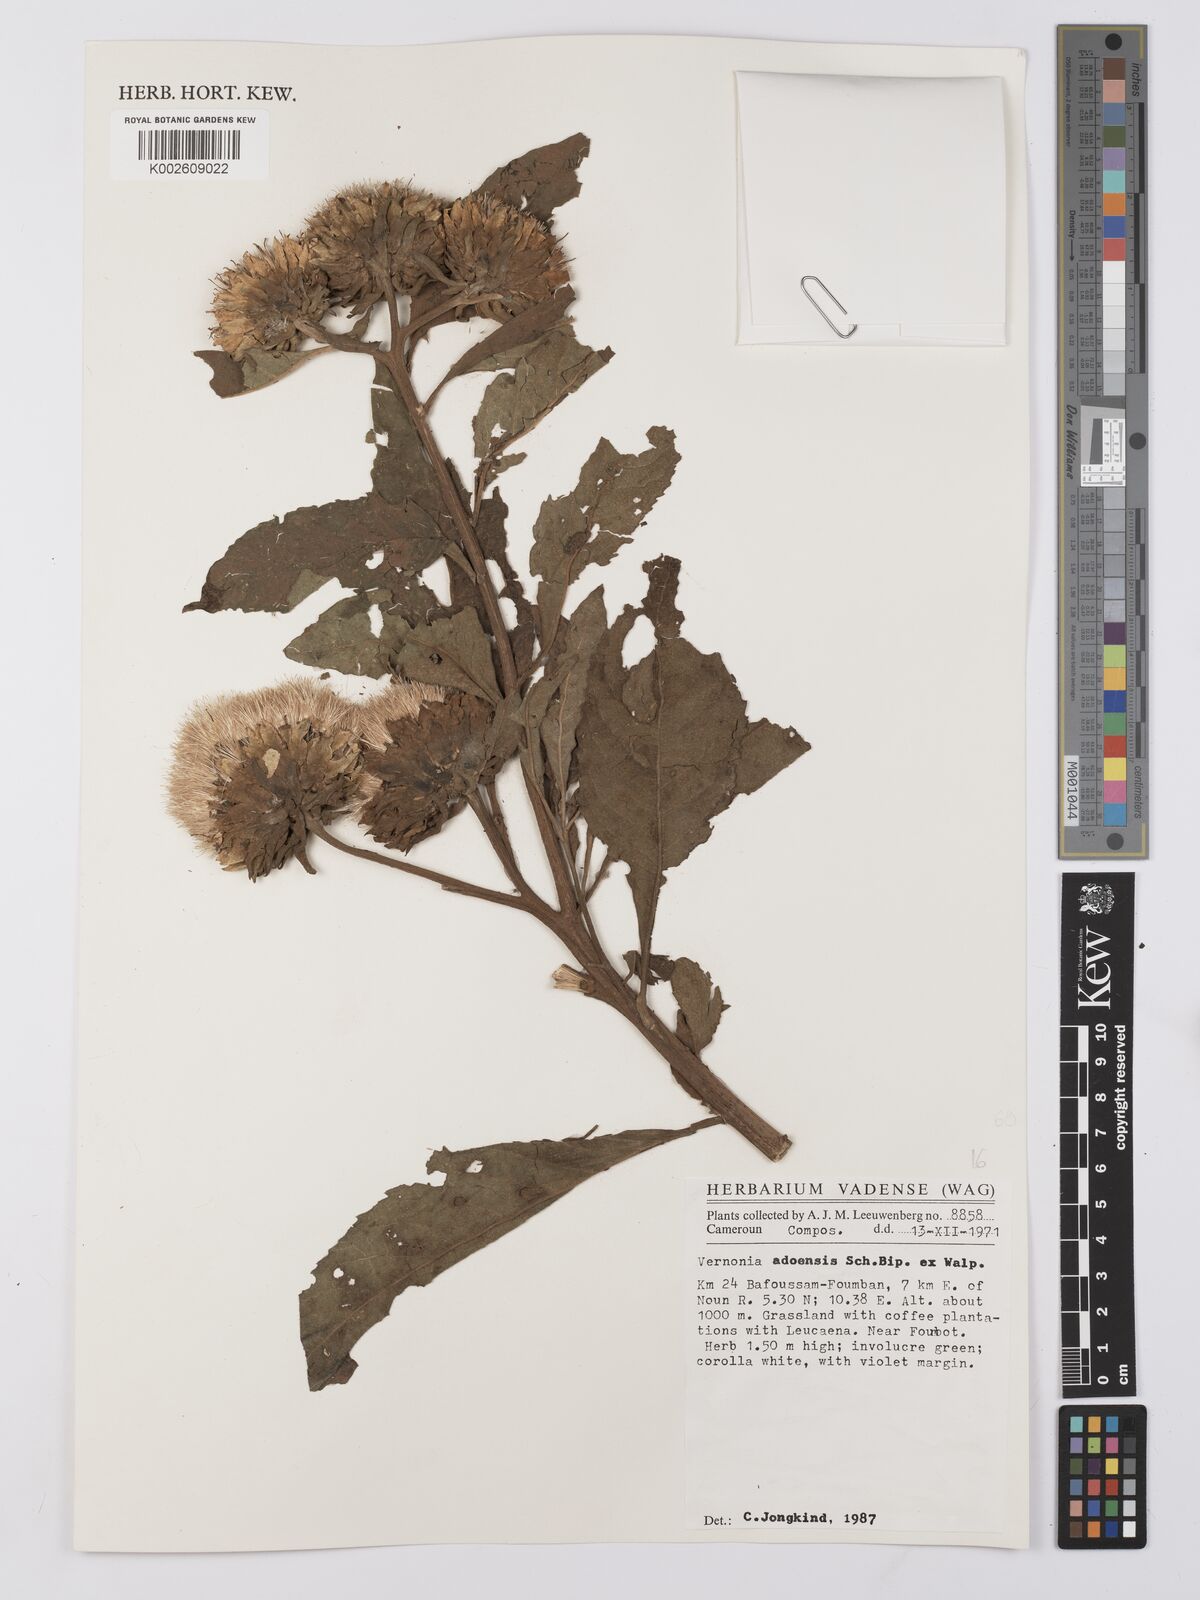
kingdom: Plantae
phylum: Tracheophyta
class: Magnoliopsida
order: Asterales
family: Asteraceae
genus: Baccharoides
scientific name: Baccharoides adoensis
